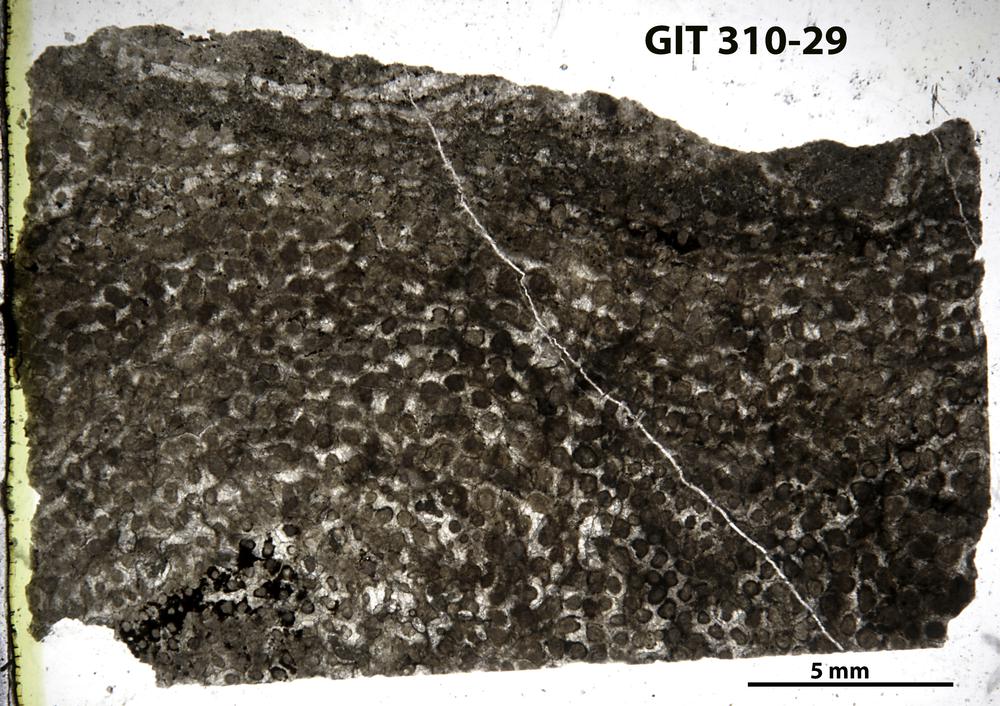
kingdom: Animalia
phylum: Porifera
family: Labechiidae
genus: Labechia
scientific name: Labechia
